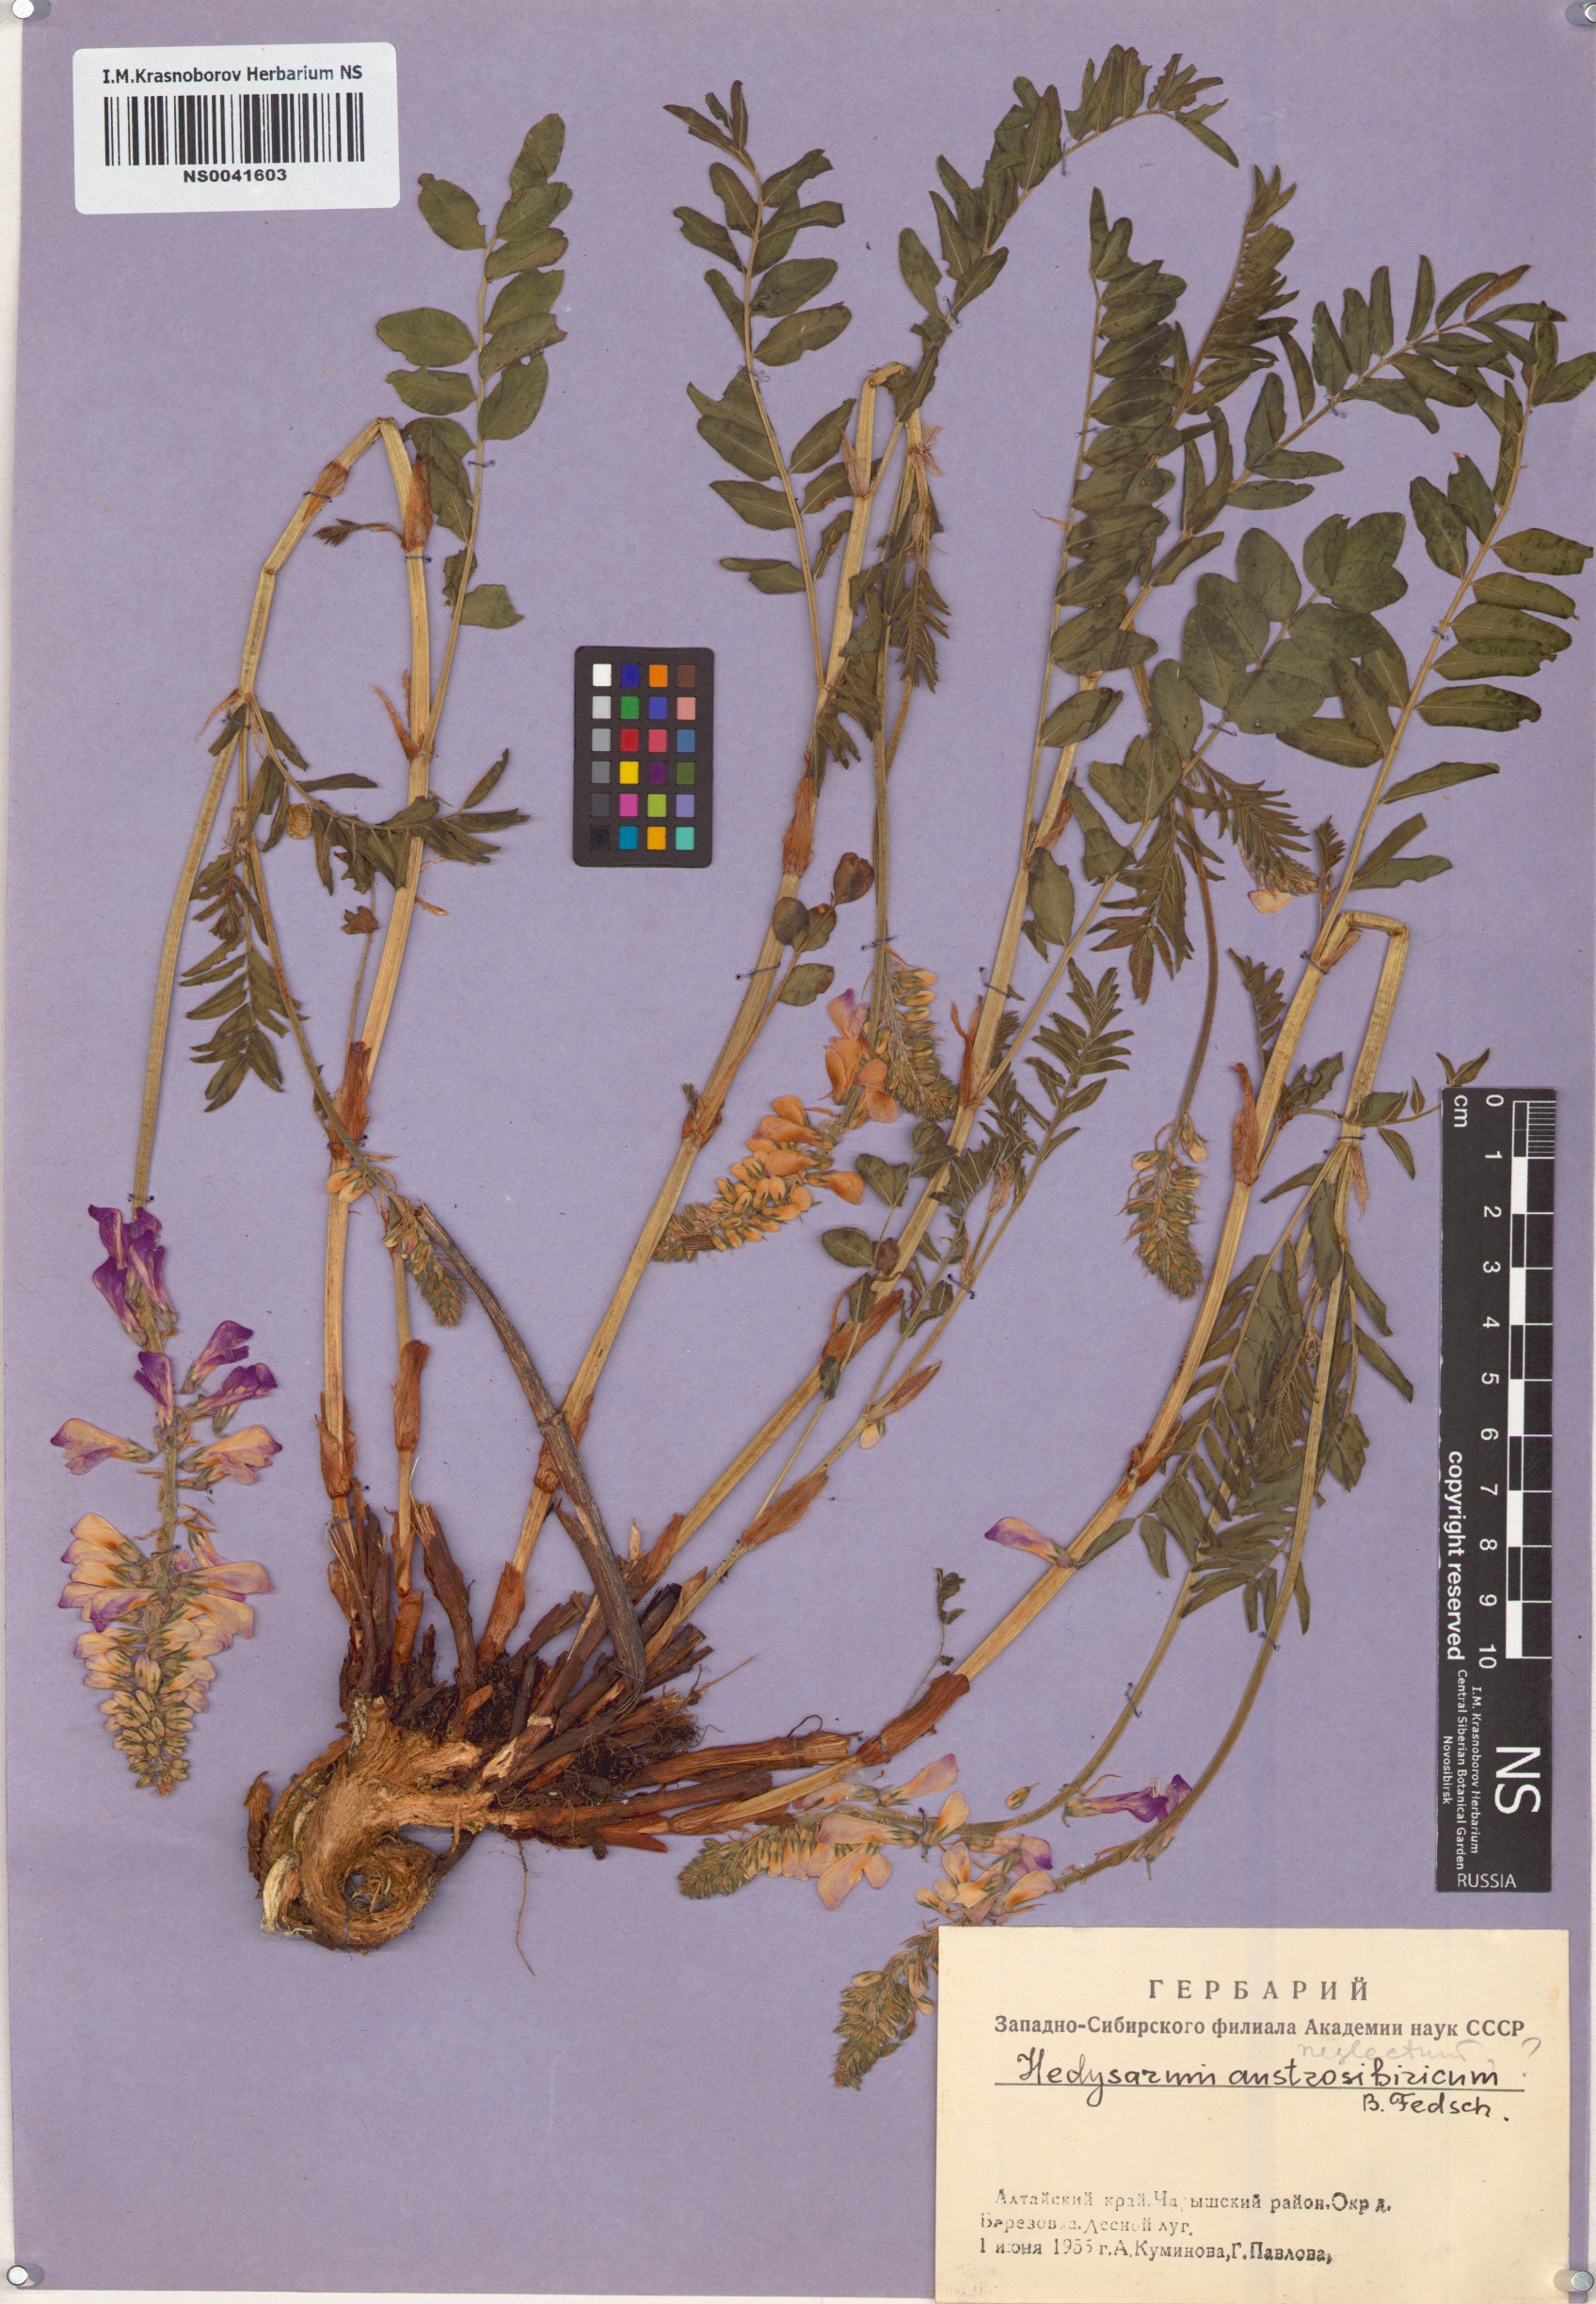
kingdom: Plantae
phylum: Tracheophyta
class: Magnoliopsida
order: Fabales
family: Fabaceae
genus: Hedysarum
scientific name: Hedysarum neglectum
